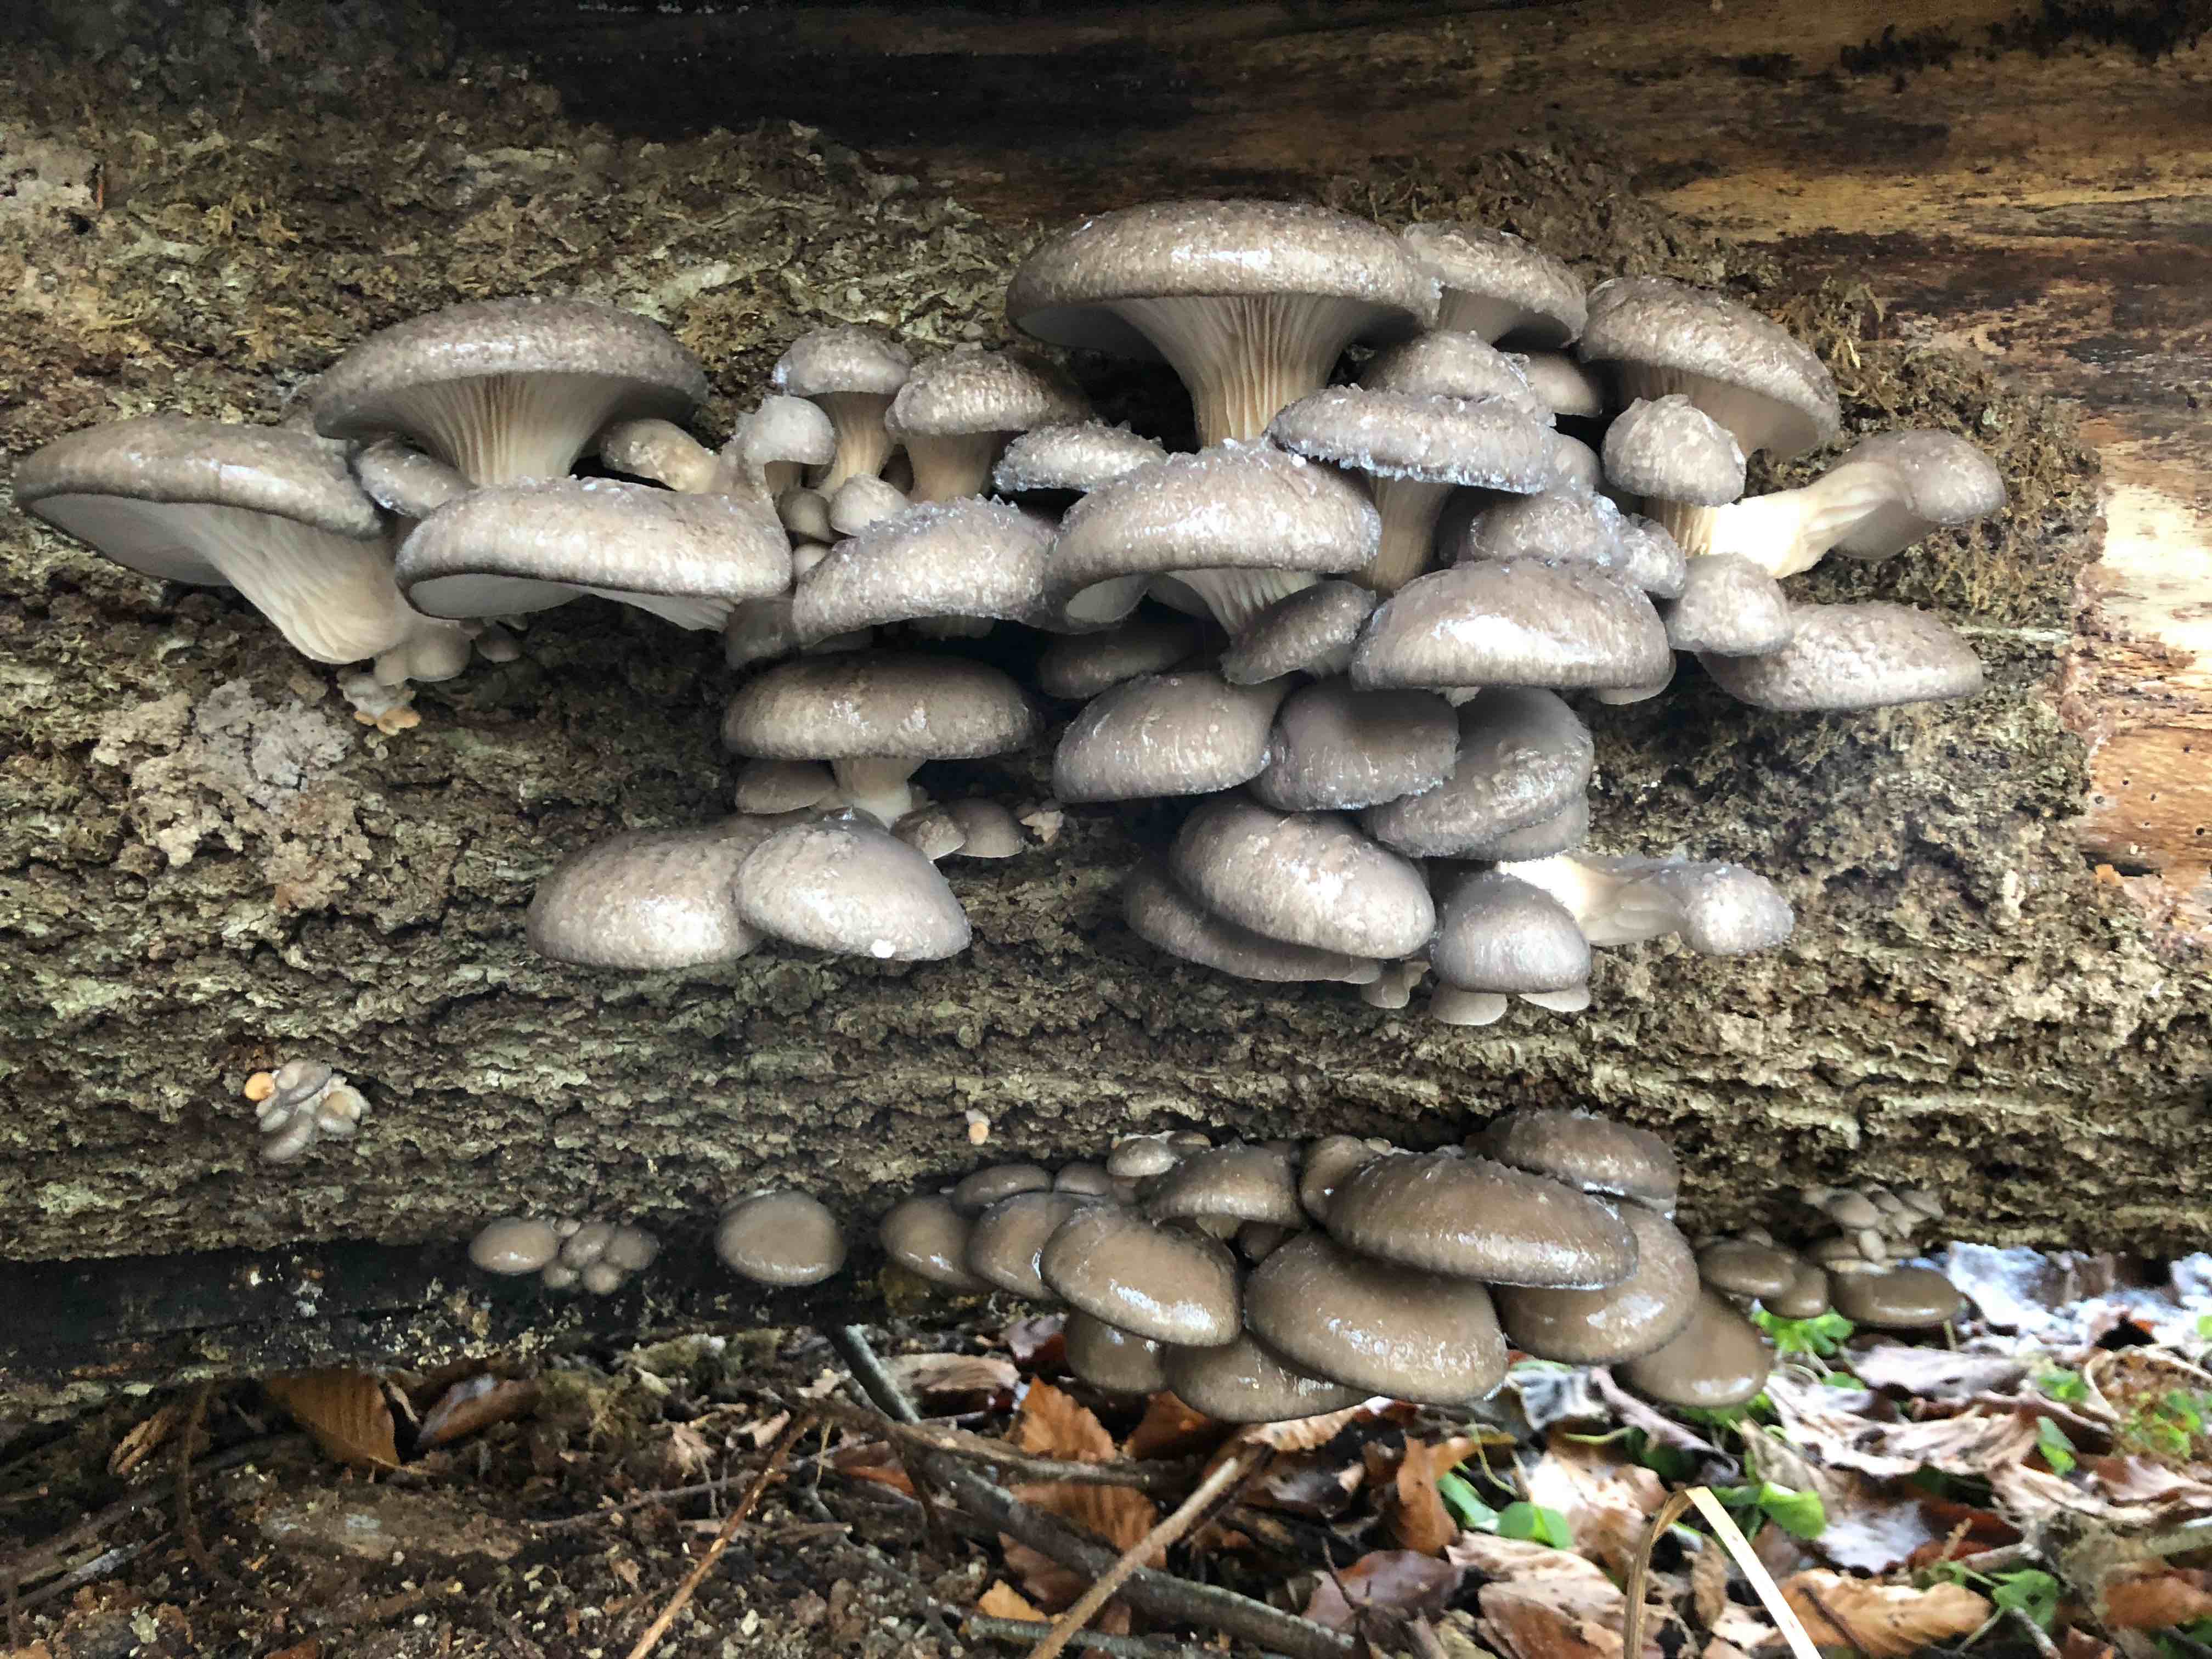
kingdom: Fungi
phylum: Basidiomycota
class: Agaricomycetes
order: Agaricales
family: Pleurotaceae
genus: Pleurotus
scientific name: Pleurotus ostreatus
